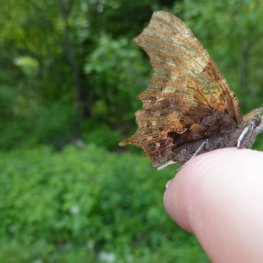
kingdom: Animalia
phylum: Arthropoda
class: Insecta
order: Lepidoptera
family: Nymphalidae
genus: Polygonia
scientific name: Polygonia interrogationis
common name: Question Mark
